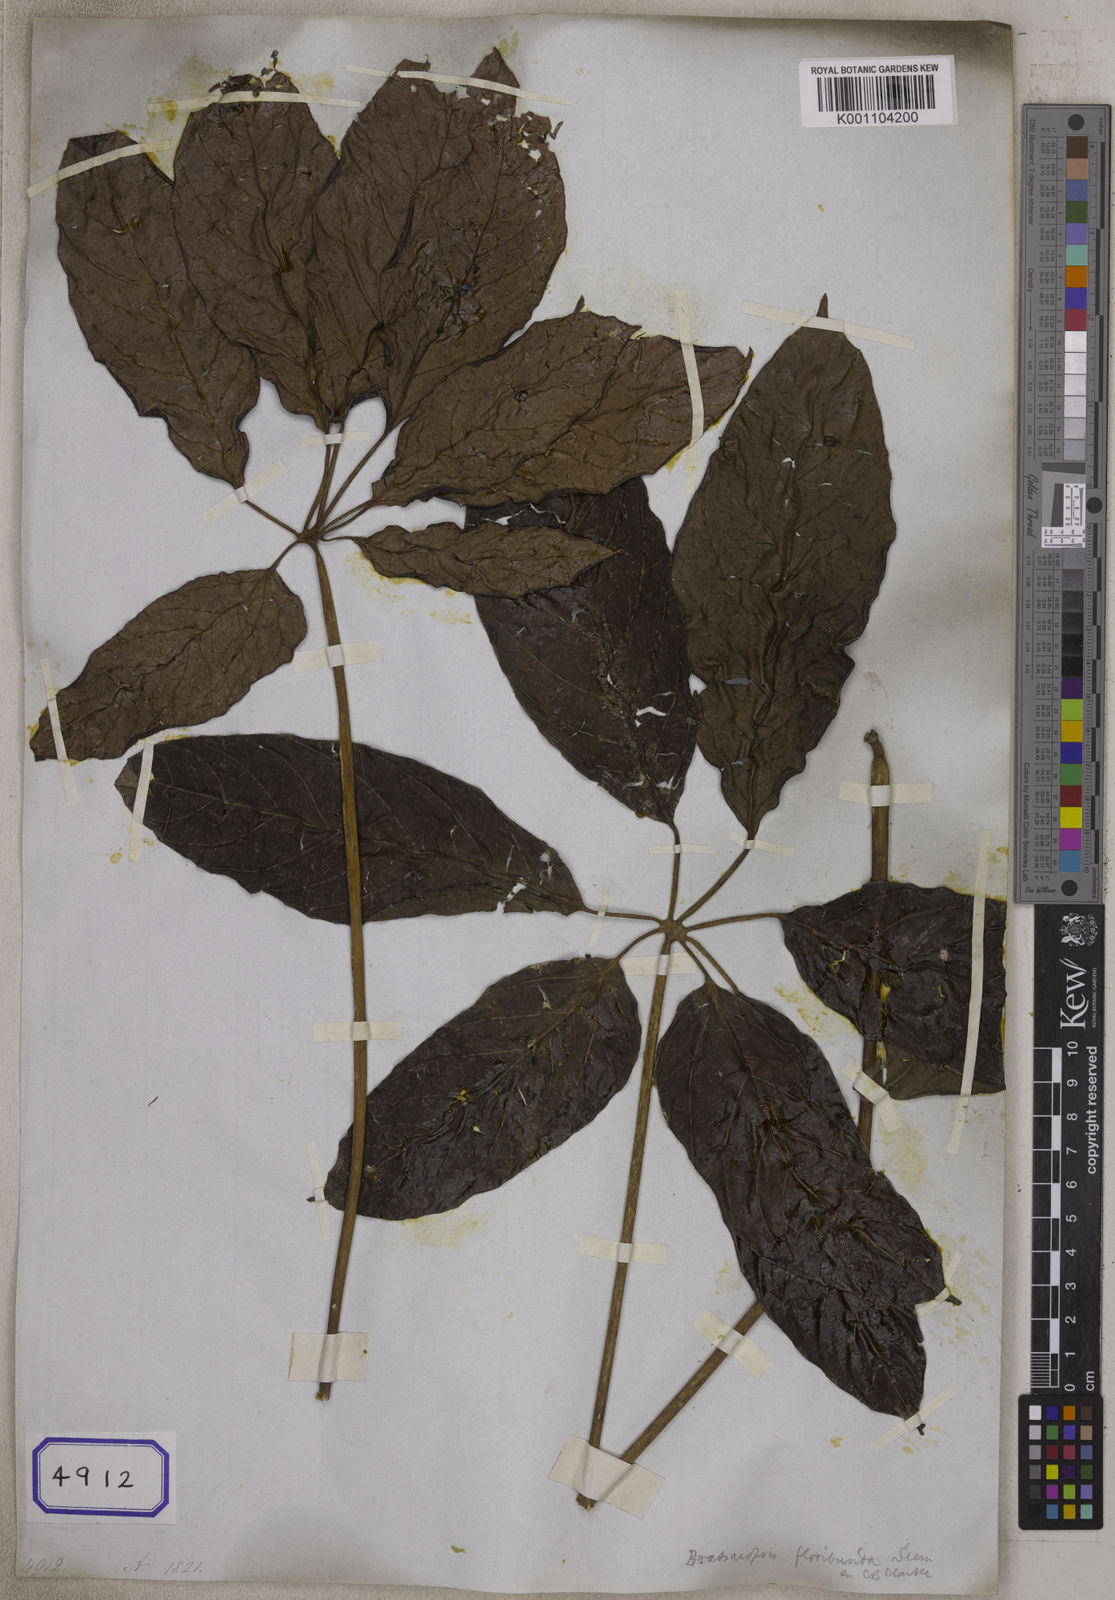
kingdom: Plantae
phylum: Tracheophyta
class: Magnoliopsida
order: Apiales
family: Araliaceae
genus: Hedera
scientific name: Hedera
